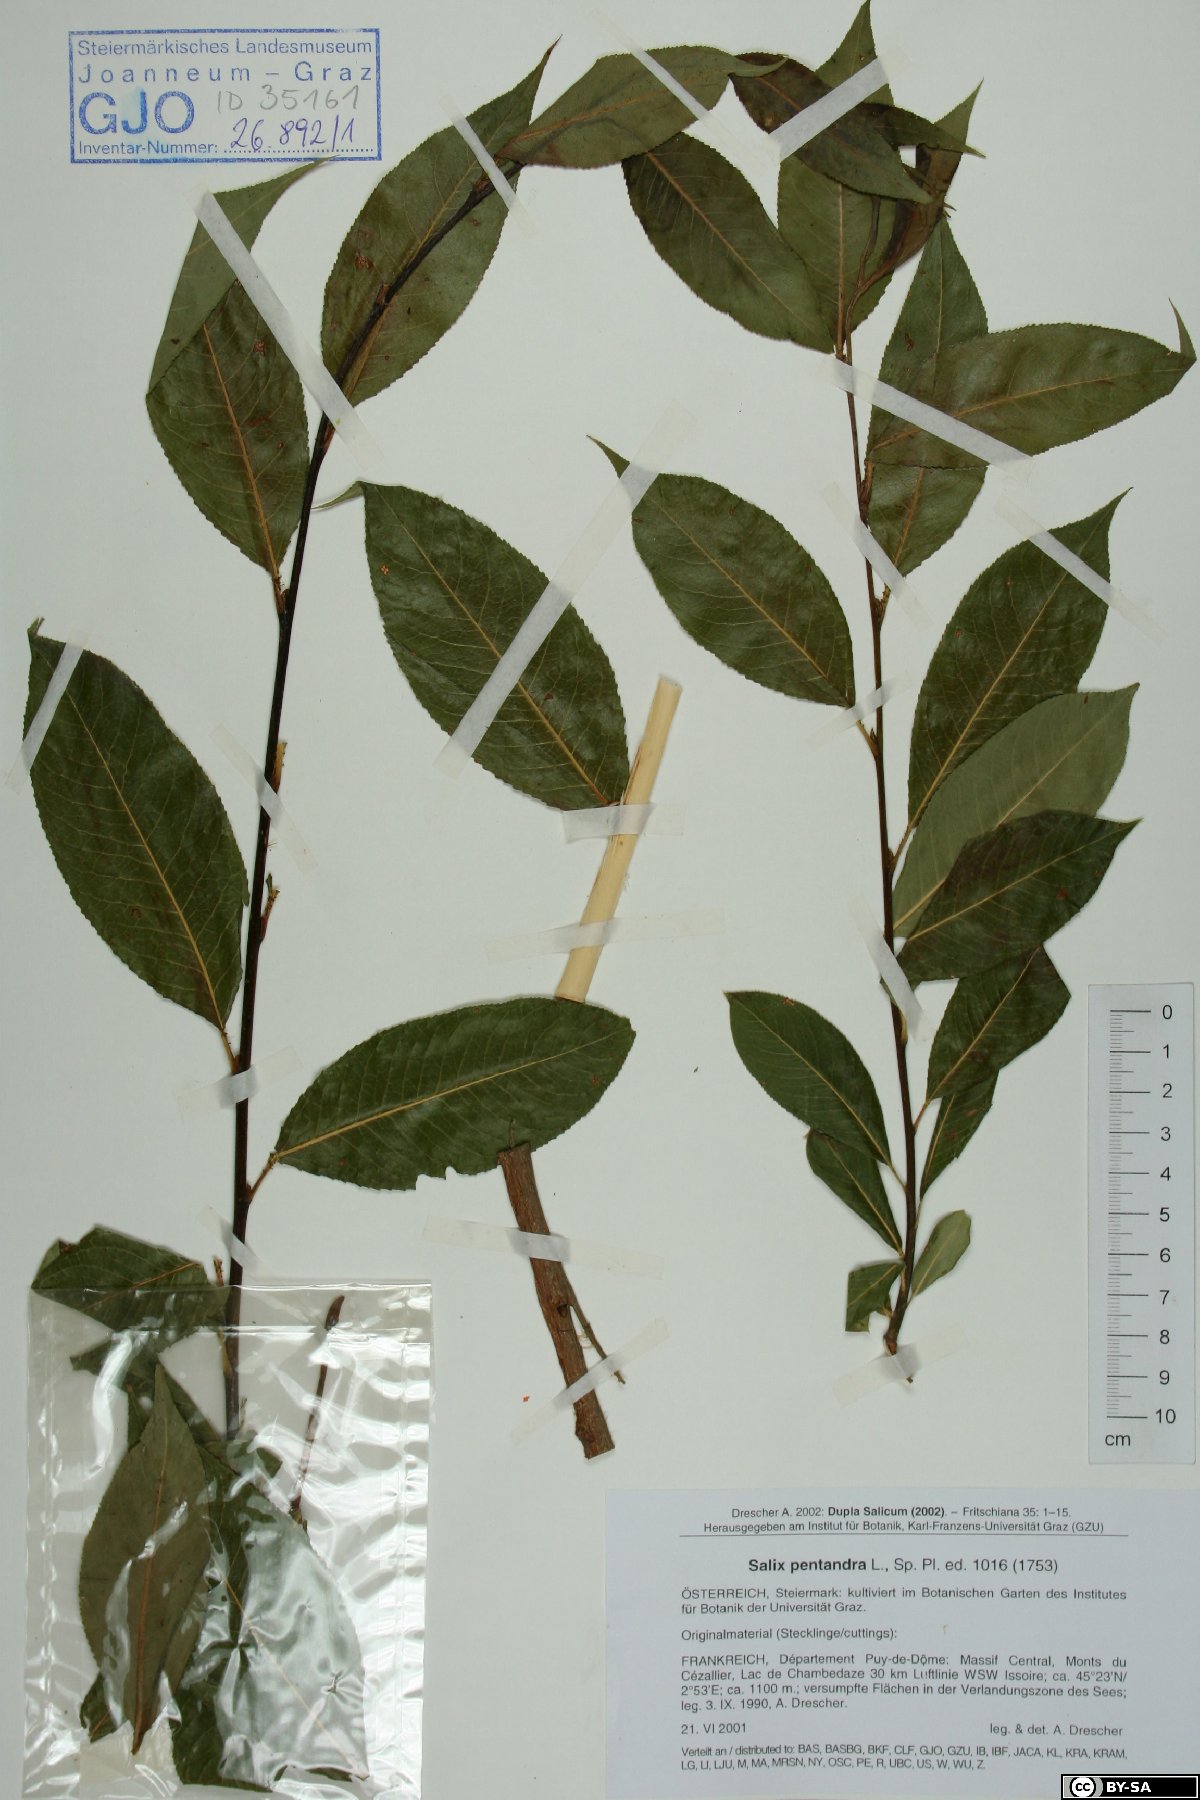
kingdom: Plantae
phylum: Tracheophyta
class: Magnoliopsida
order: Malpighiales
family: Salicaceae
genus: Salix
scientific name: Salix pentandra
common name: Bay willow
